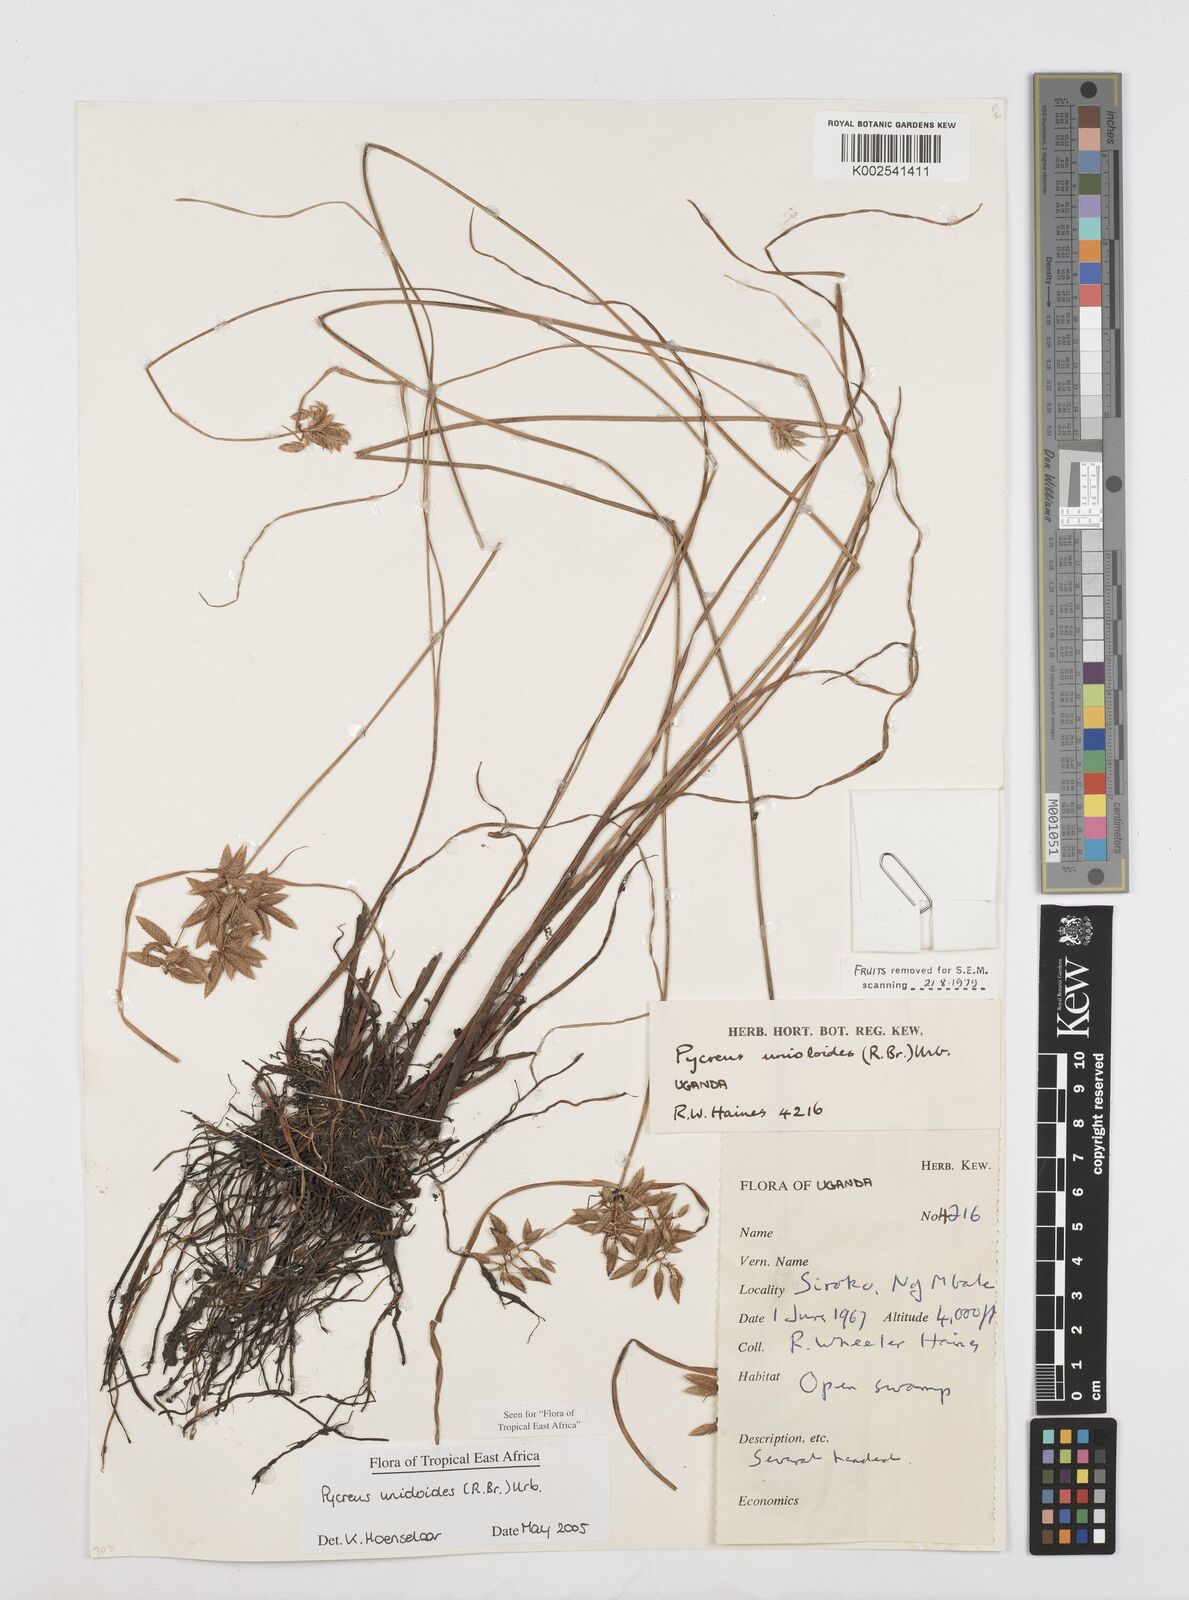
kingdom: Plantae
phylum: Tracheophyta
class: Liliopsida
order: Poales
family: Cyperaceae
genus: Cyperus
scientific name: Cyperus unioloides
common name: Uniola flatsedge
